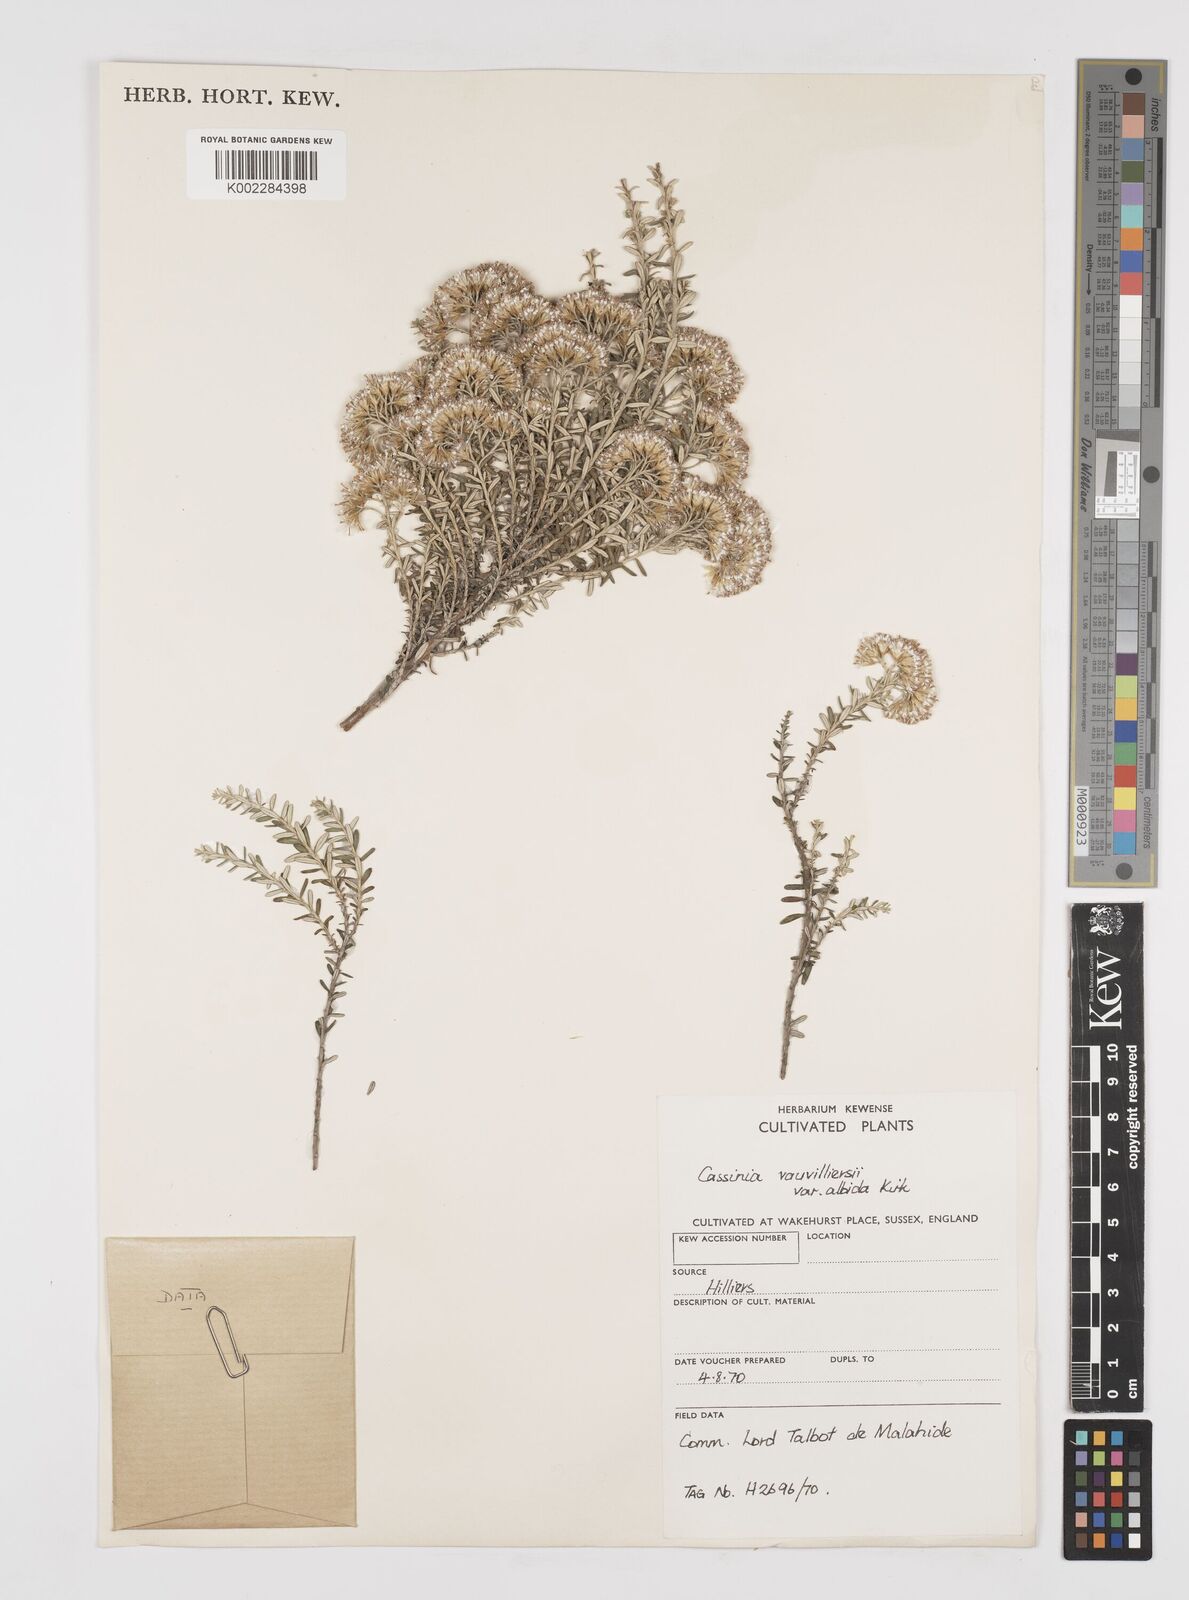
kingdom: Plantae
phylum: Tracheophyta
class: Magnoliopsida
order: Asterales
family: Asteraceae
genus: Ozothamnus
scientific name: Ozothamnus leptophyllus
